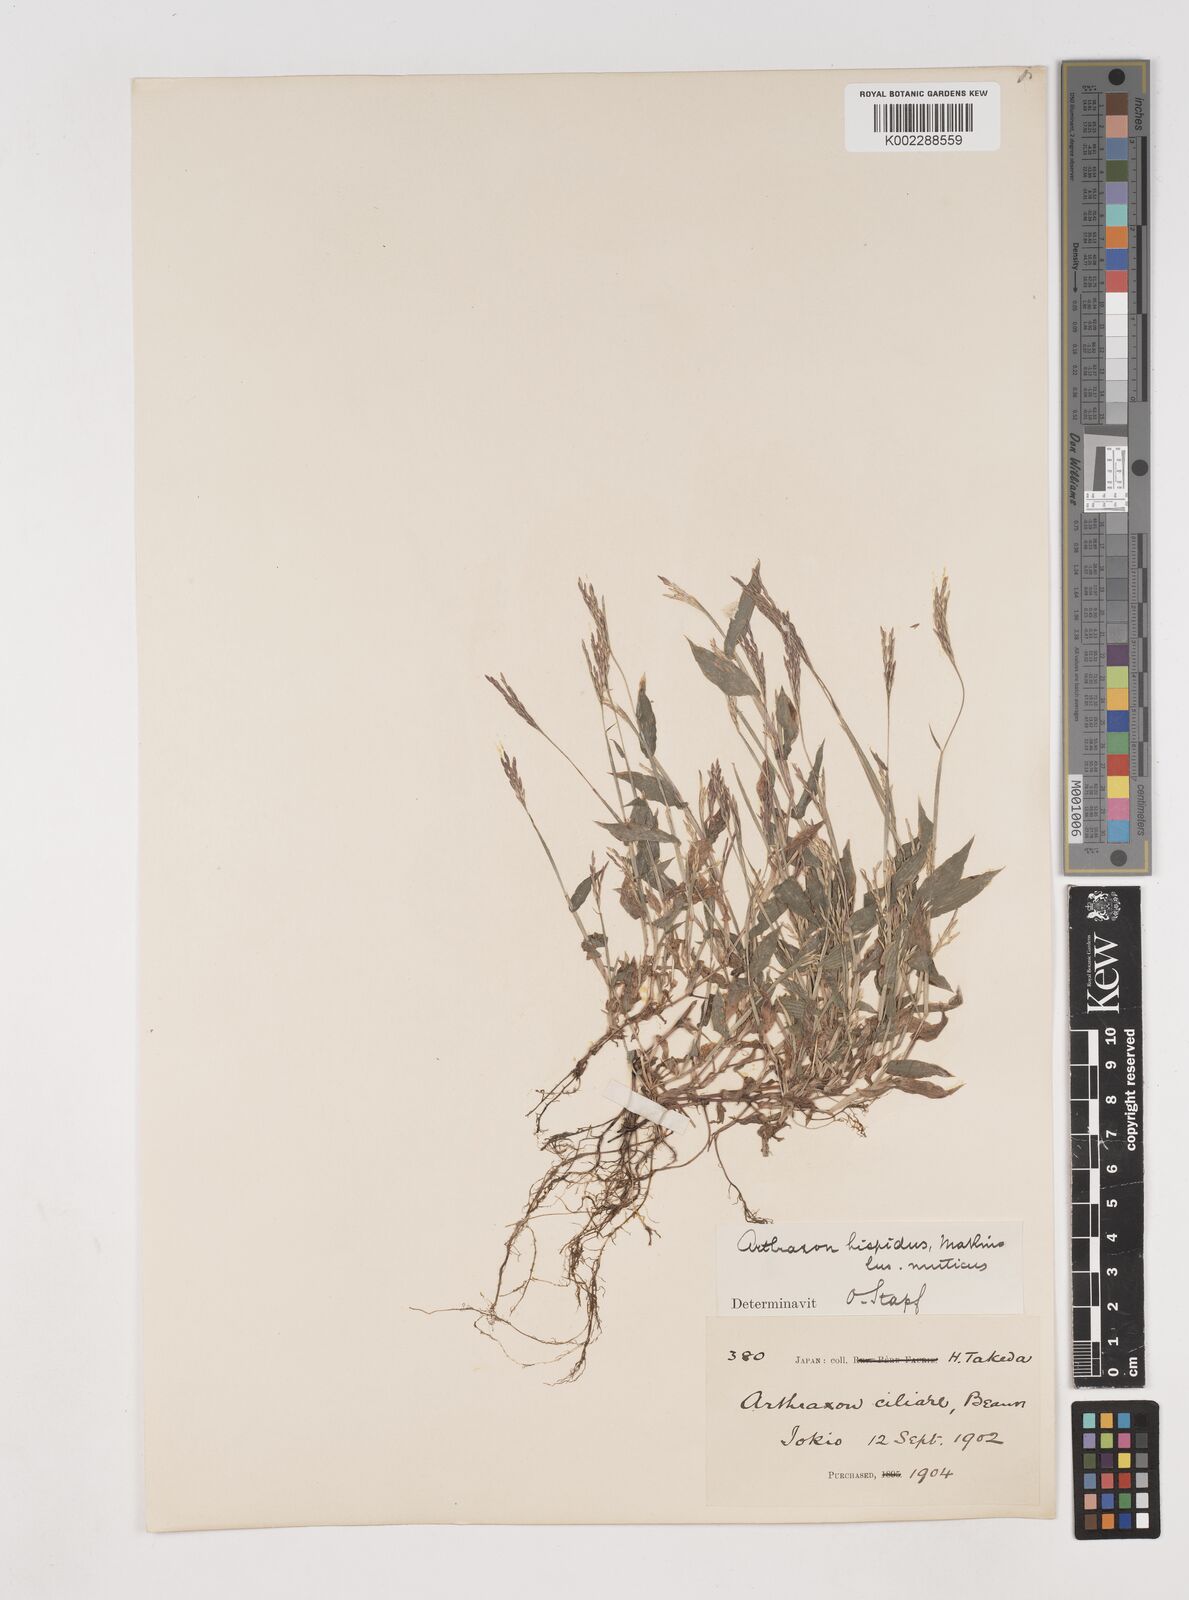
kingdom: Plantae
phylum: Tracheophyta
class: Liliopsida
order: Poales
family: Poaceae
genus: Arthraxon
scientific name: Arthraxon hispidus
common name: Small carpgrass
